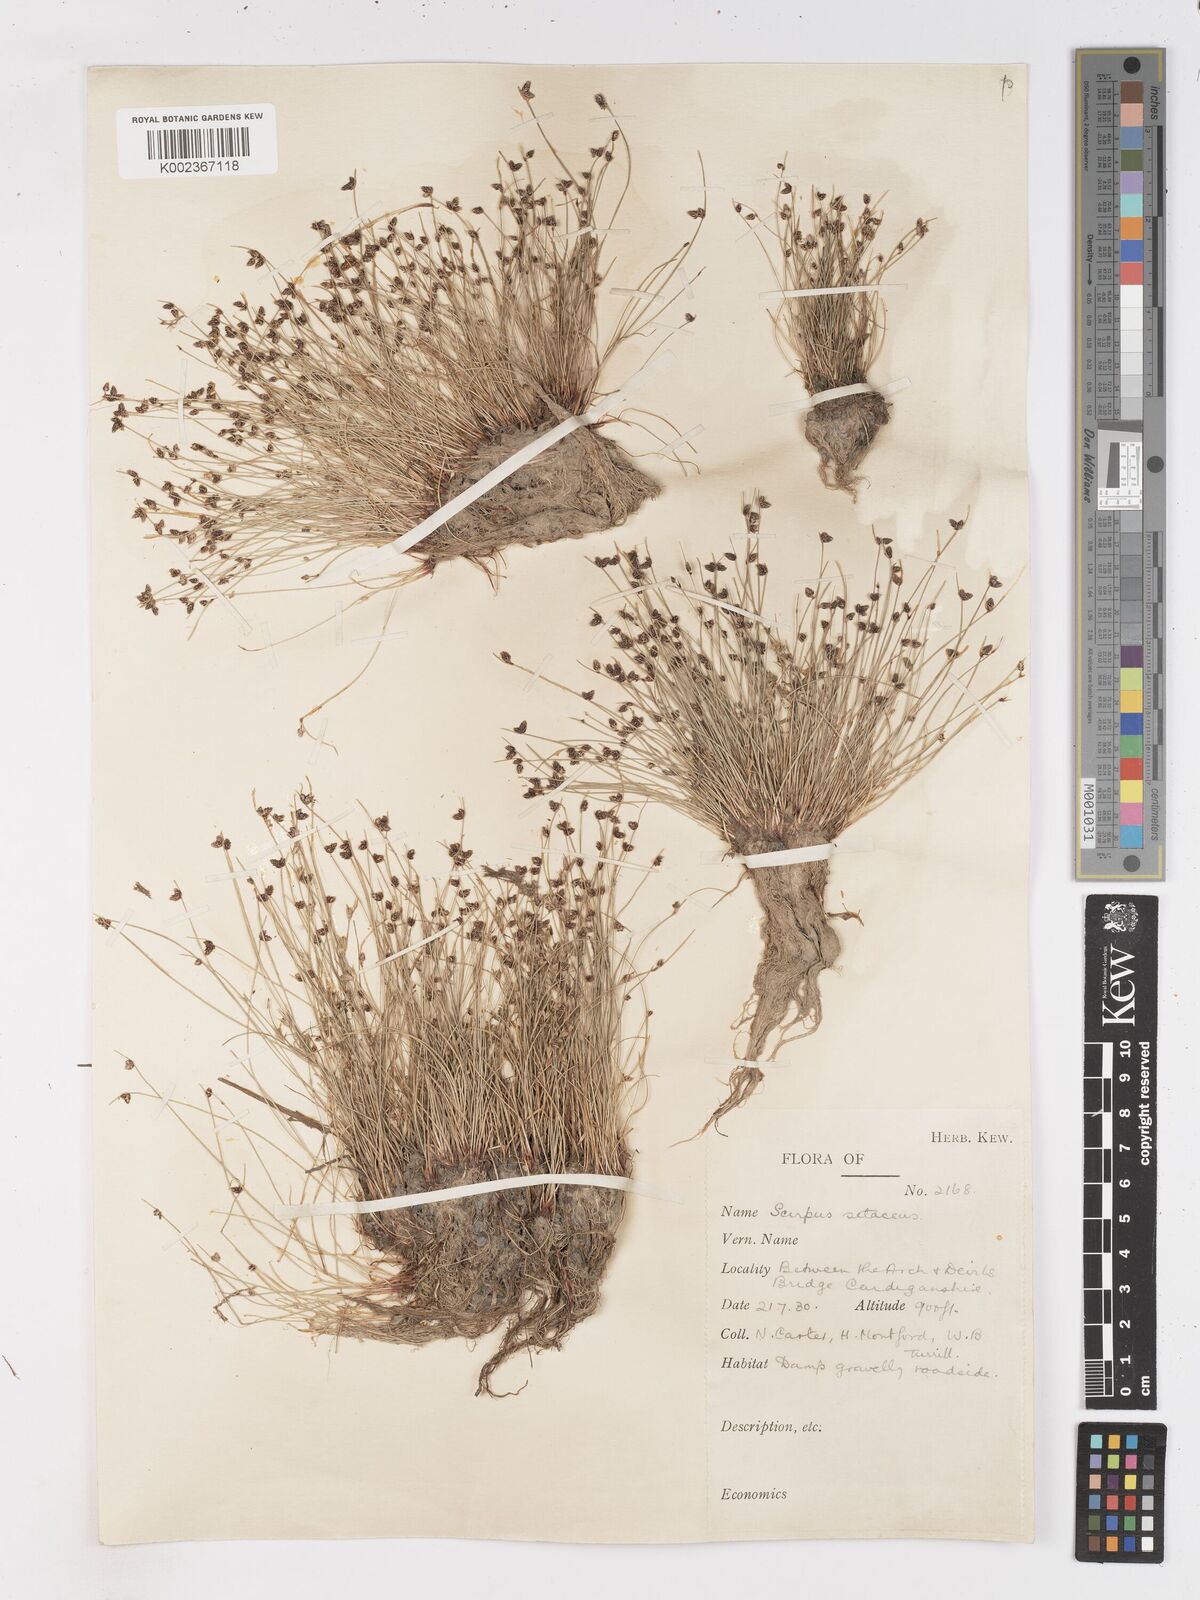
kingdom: Plantae
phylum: Tracheophyta
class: Liliopsida
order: Poales
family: Cyperaceae
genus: Isolepis
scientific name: Isolepis setacea
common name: Bristle club-rush
